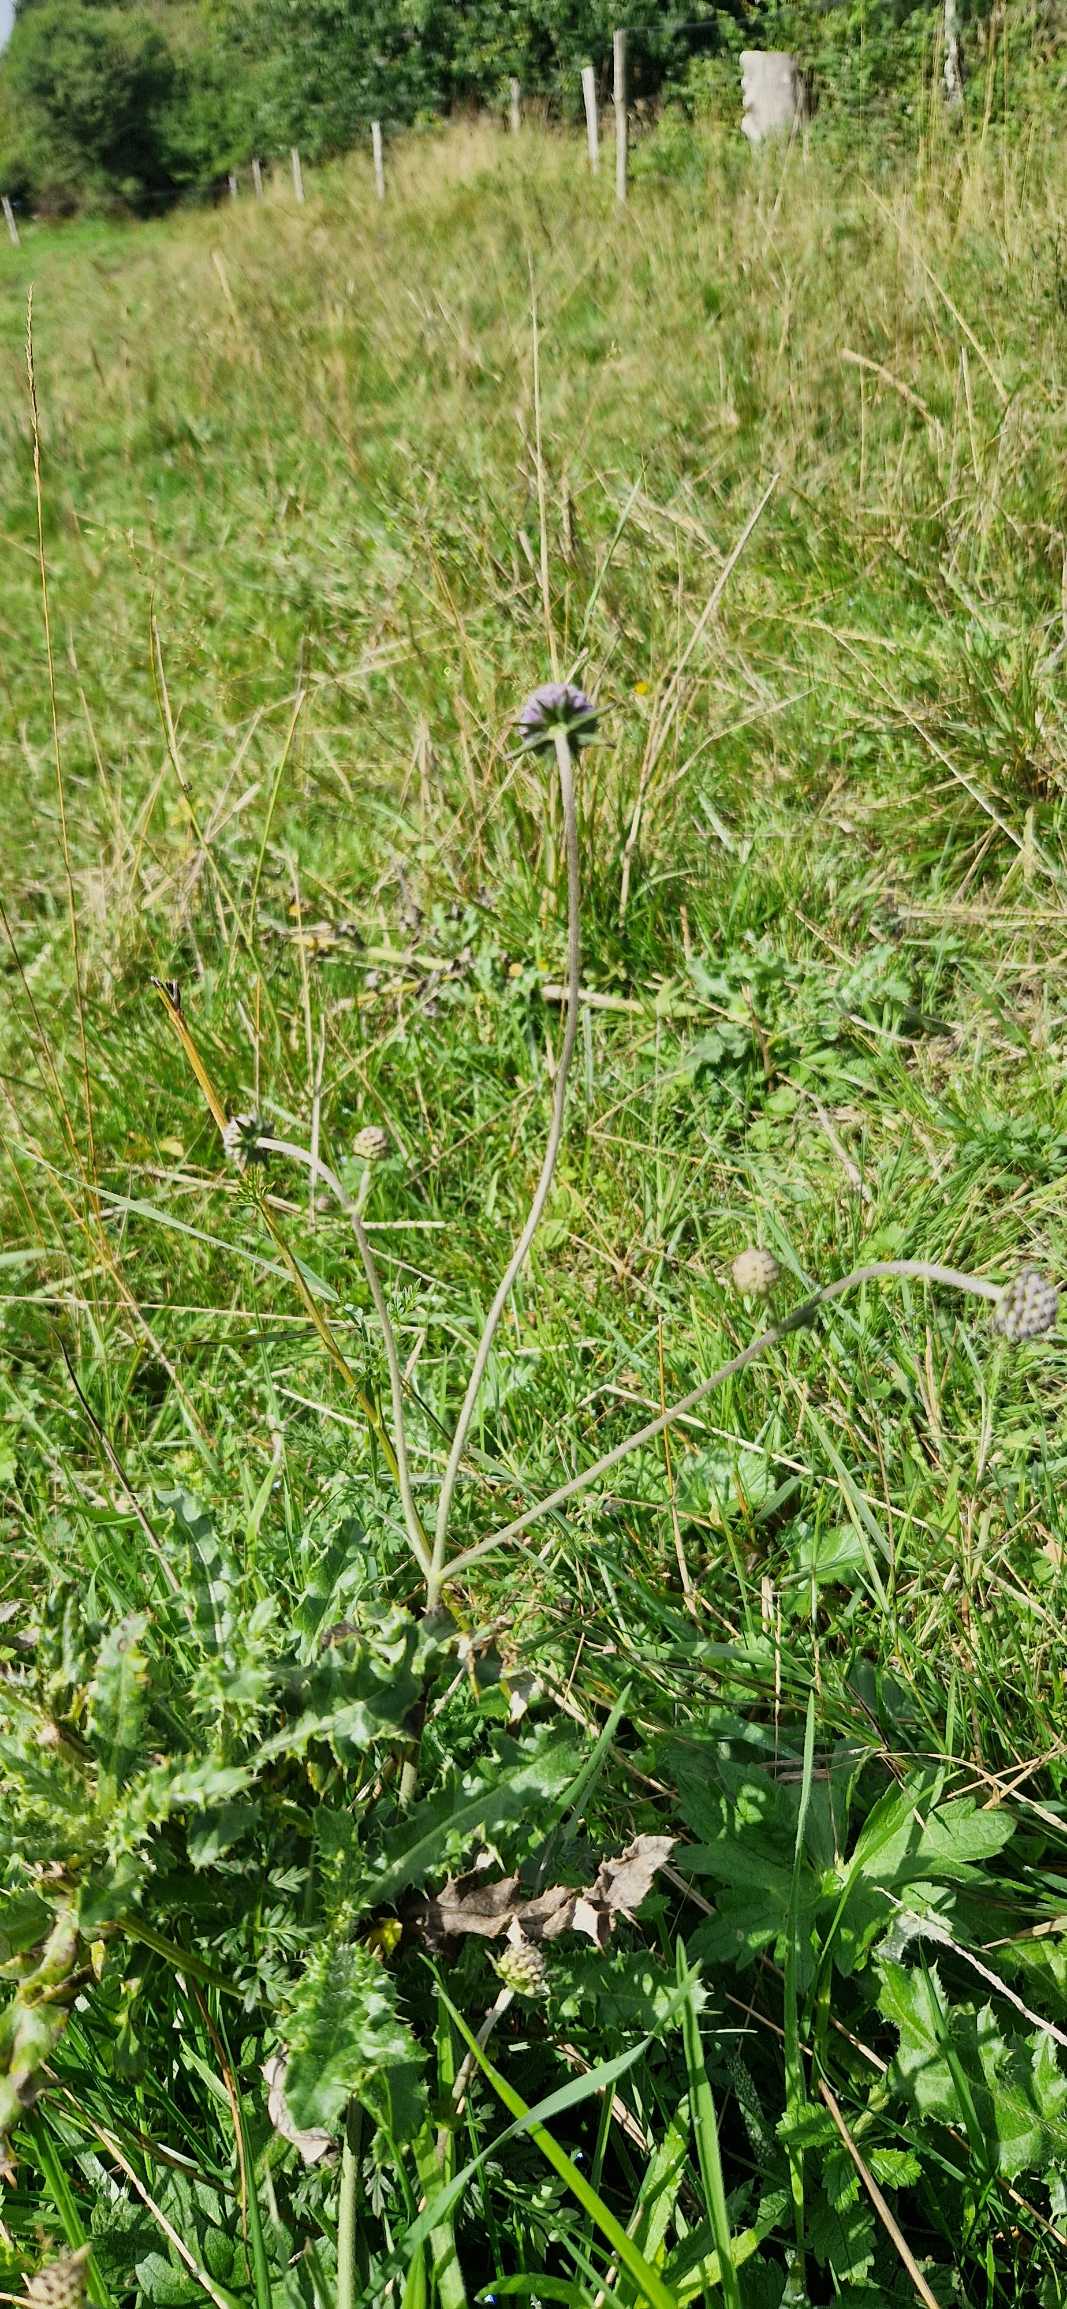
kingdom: Plantae
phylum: Tracheophyta
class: Magnoliopsida
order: Dipsacales
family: Caprifoliaceae
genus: Succisa
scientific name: Succisa pratensis
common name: Djævelsbid
